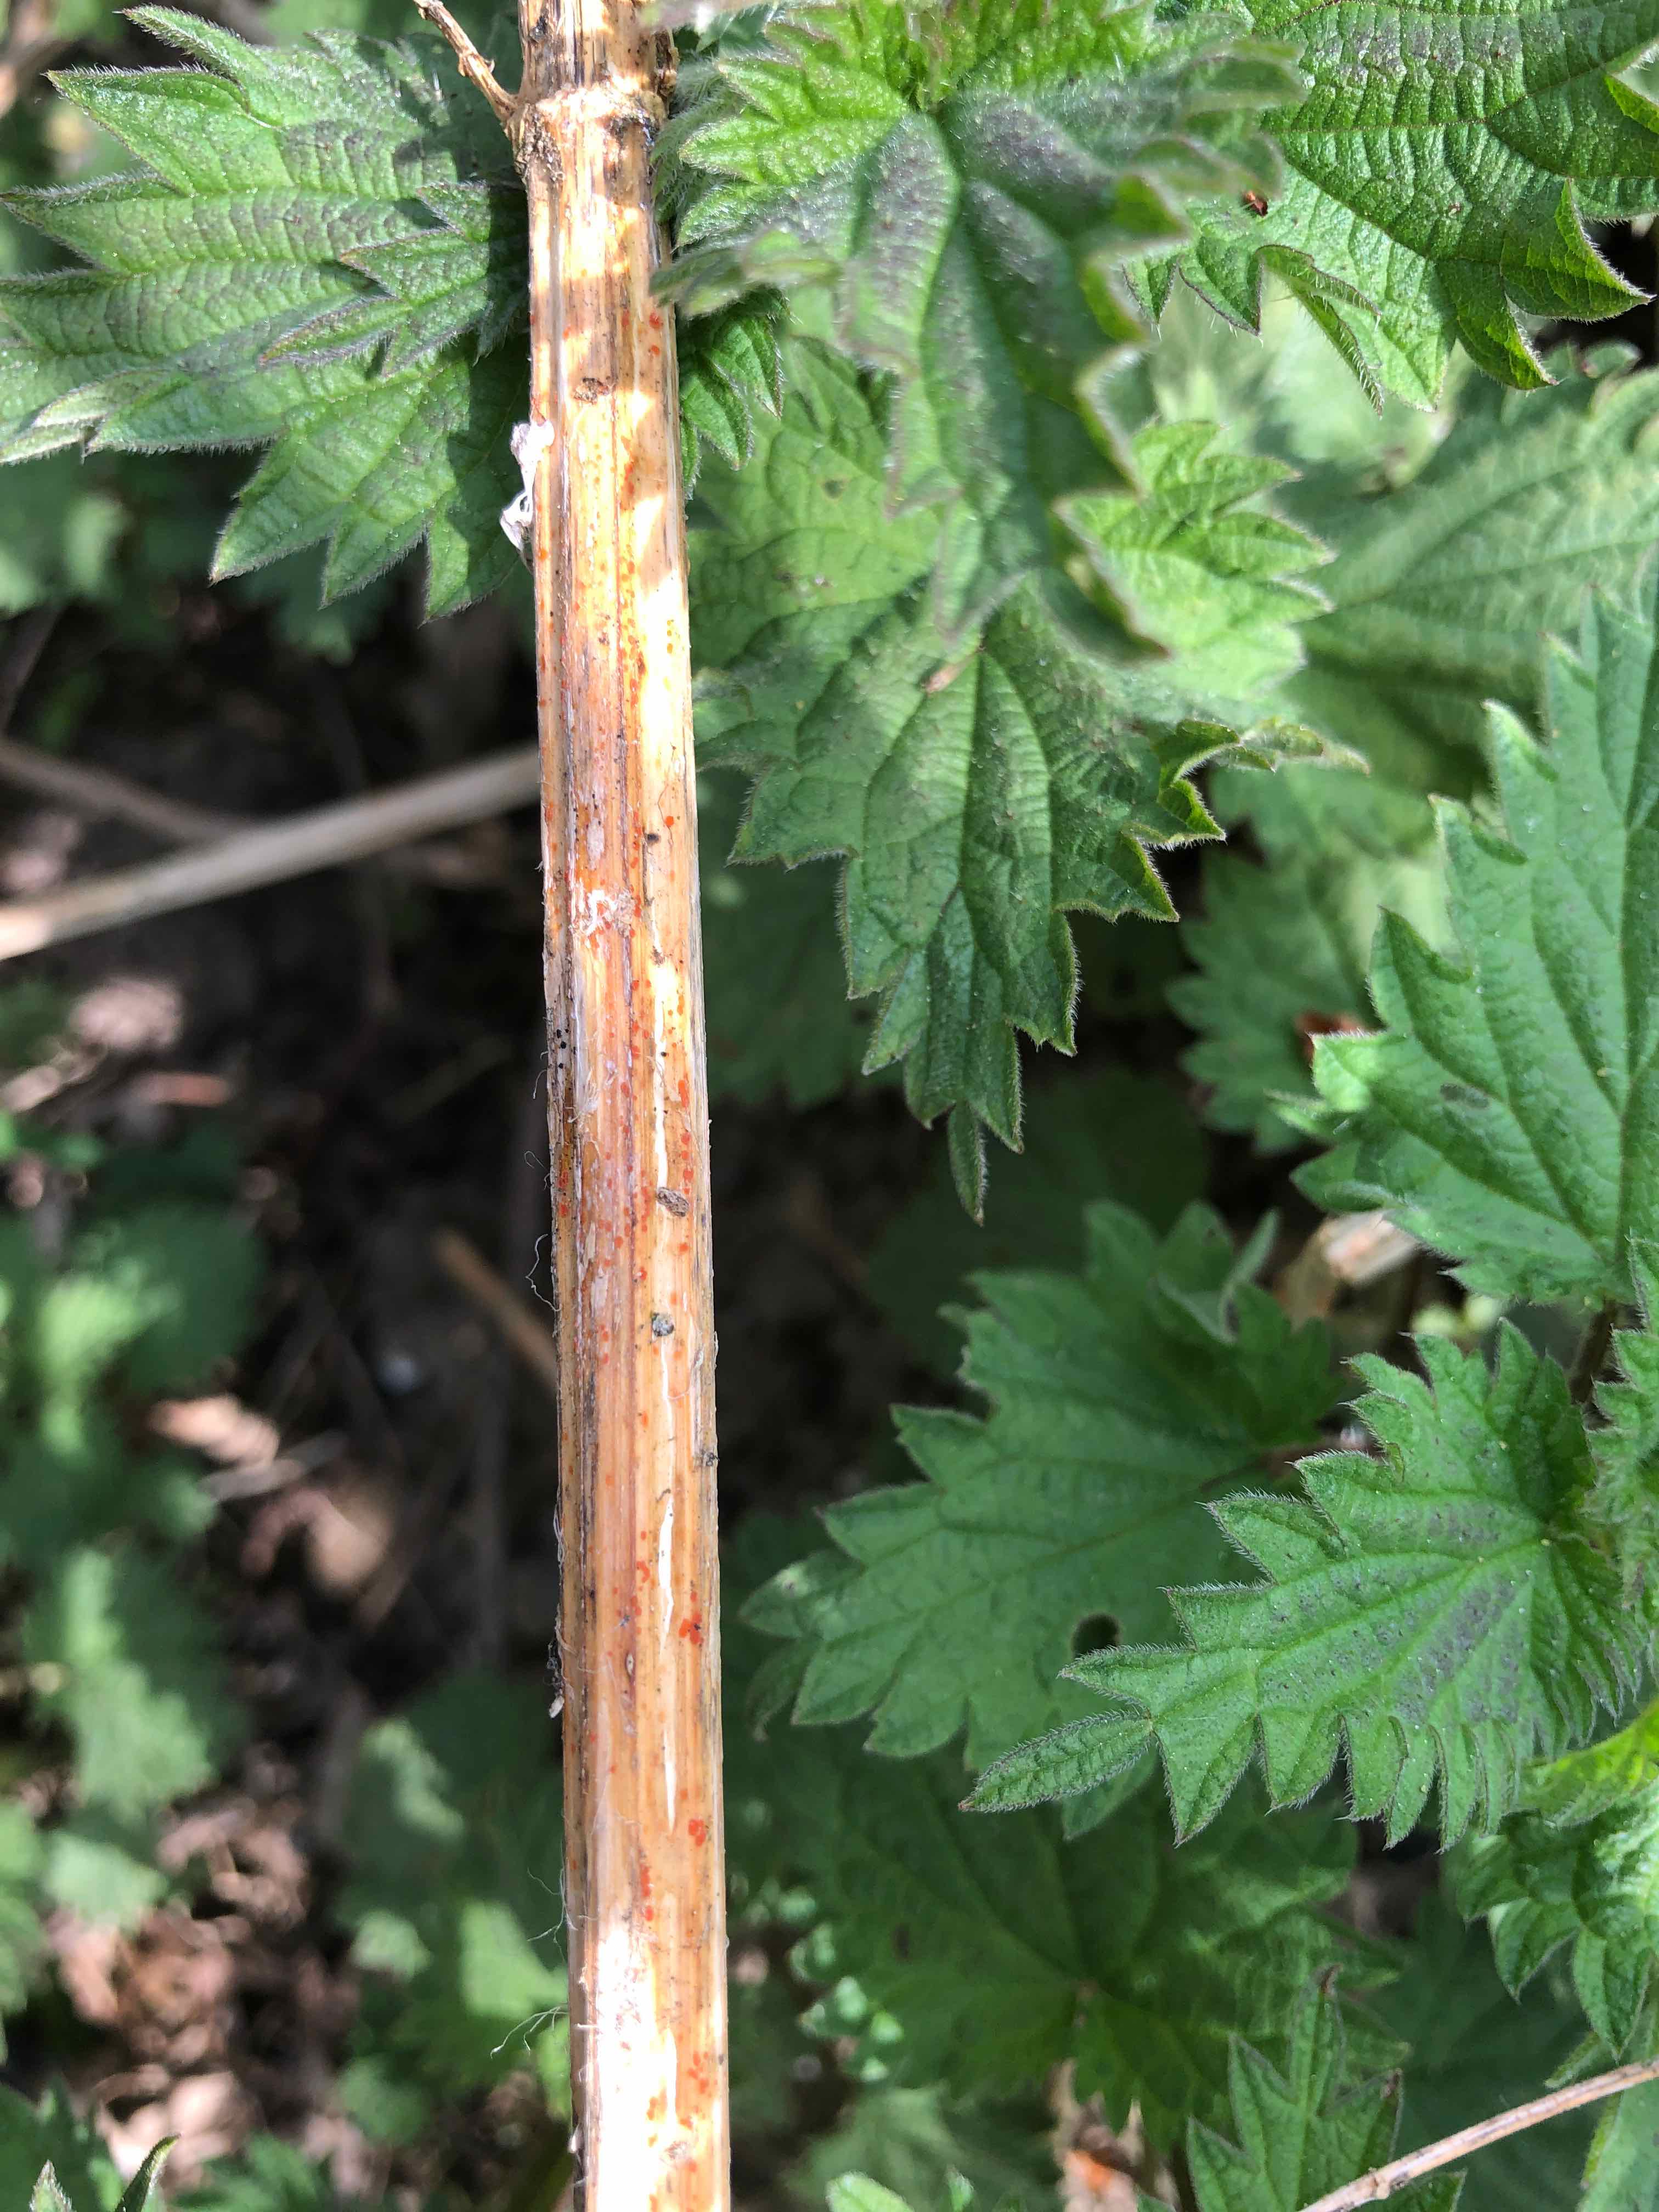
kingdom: Fungi
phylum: Ascomycota
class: Leotiomycetes
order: Helotiales
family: Calloriaceae
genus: Calloria
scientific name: Calloria urticae
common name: nælde-orangeskive
